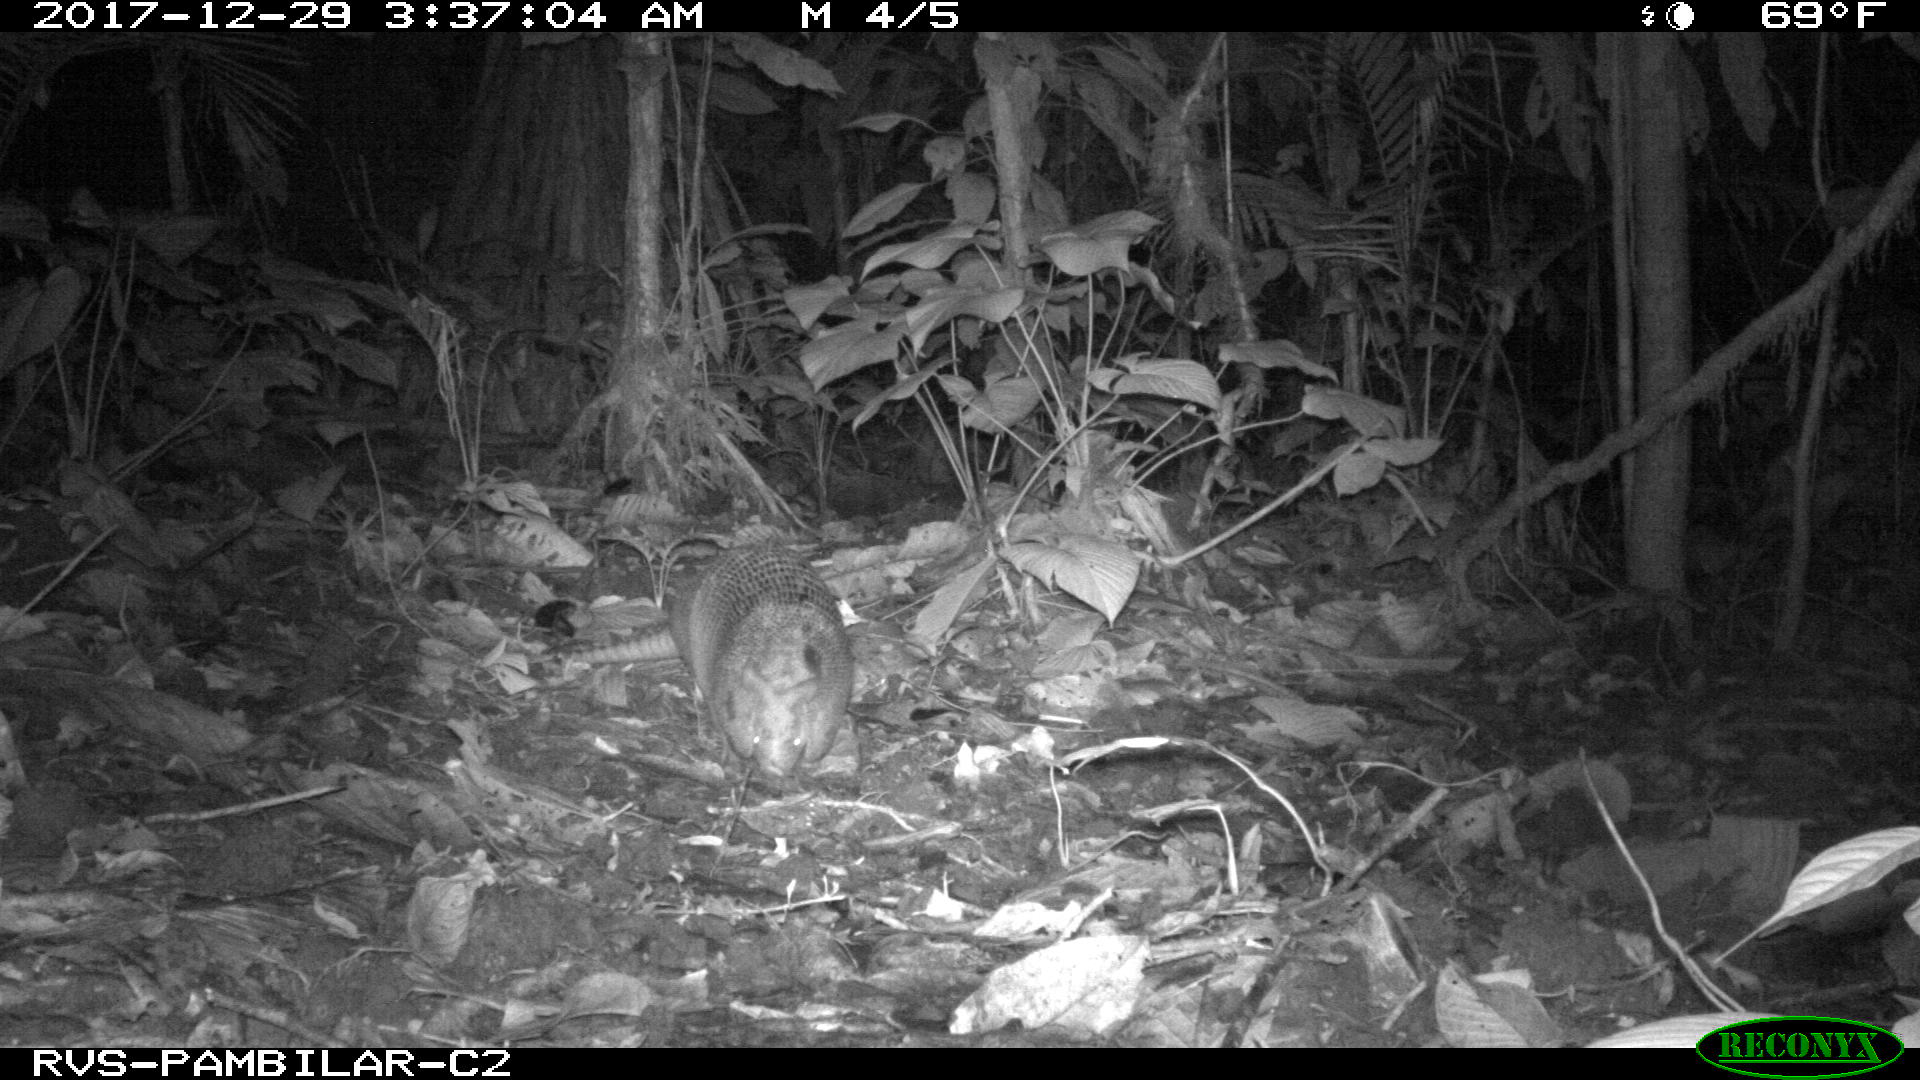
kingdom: Animalia
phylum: Chordata
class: Mammalia
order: Cingulata
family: Dasypodidae
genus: Dasypus
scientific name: Dasypus novemcinctus
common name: Nine-banded armadillo
